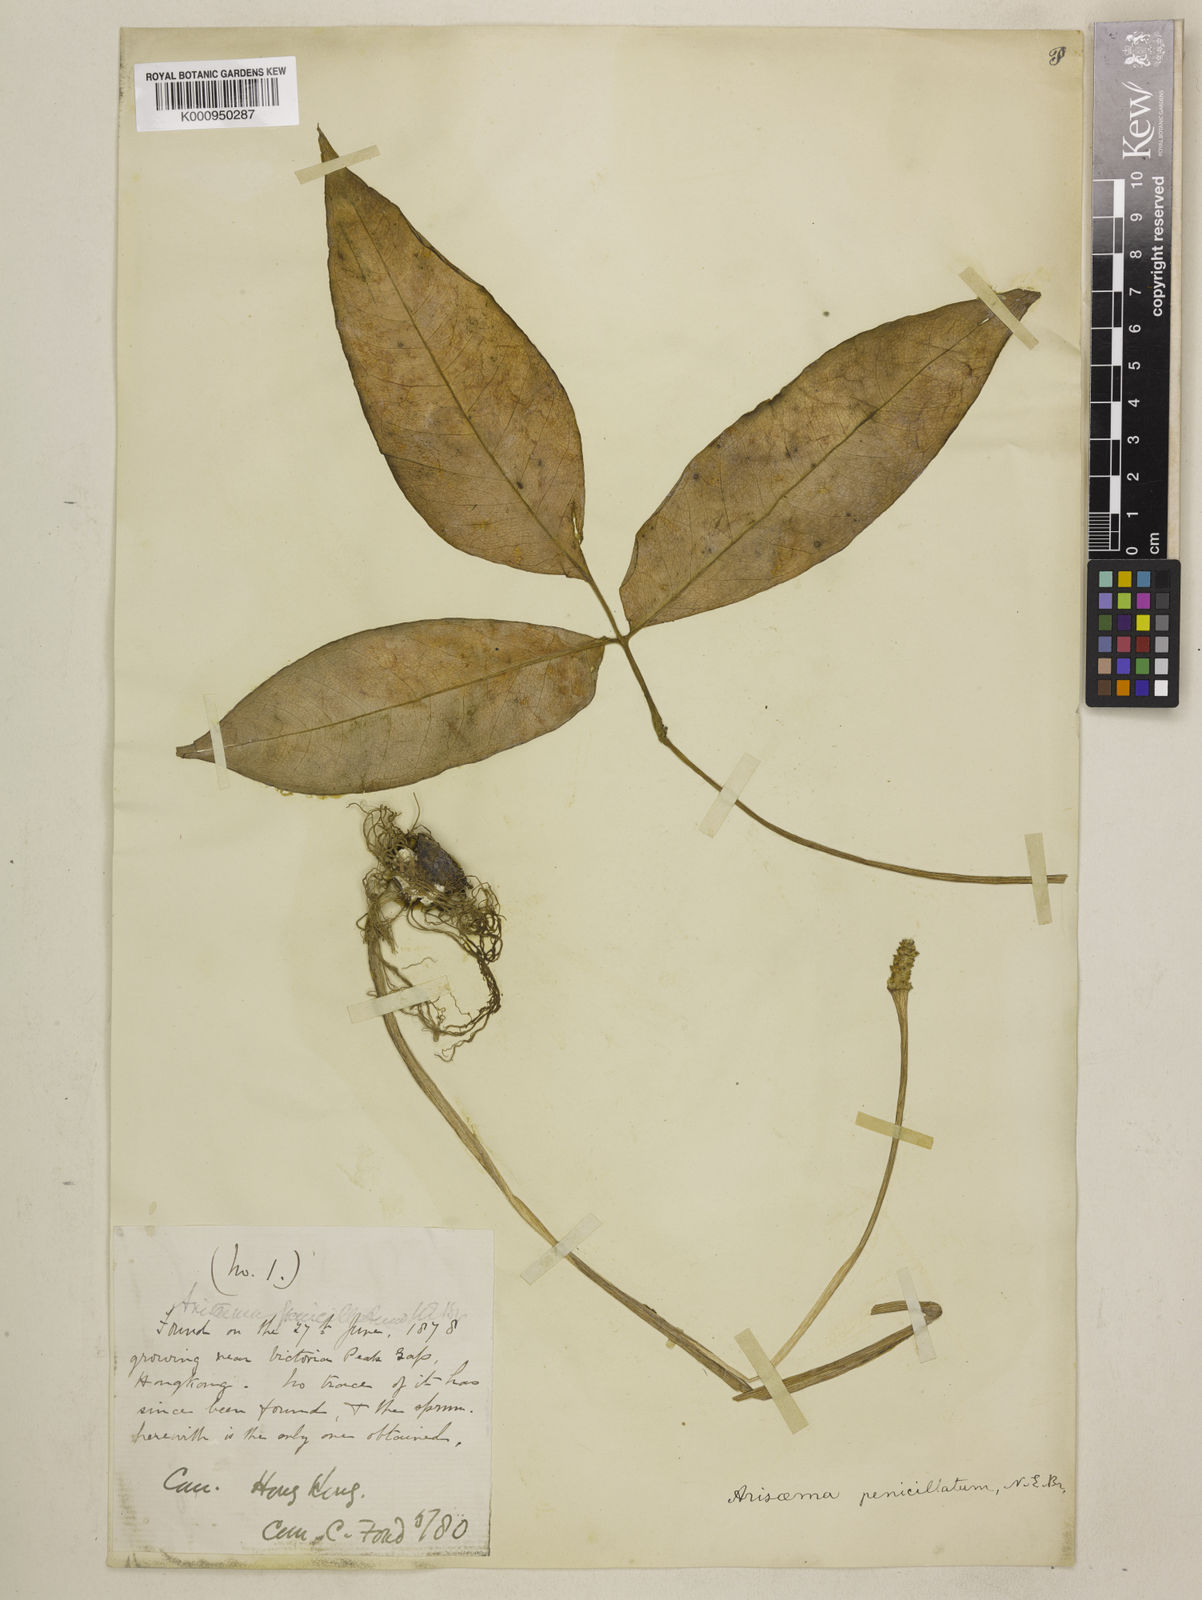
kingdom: Plantae
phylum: Tracheophyta
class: Liliopsida
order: Alismatales
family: Araceae
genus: Arisaema
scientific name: Arisaema penicillatum
